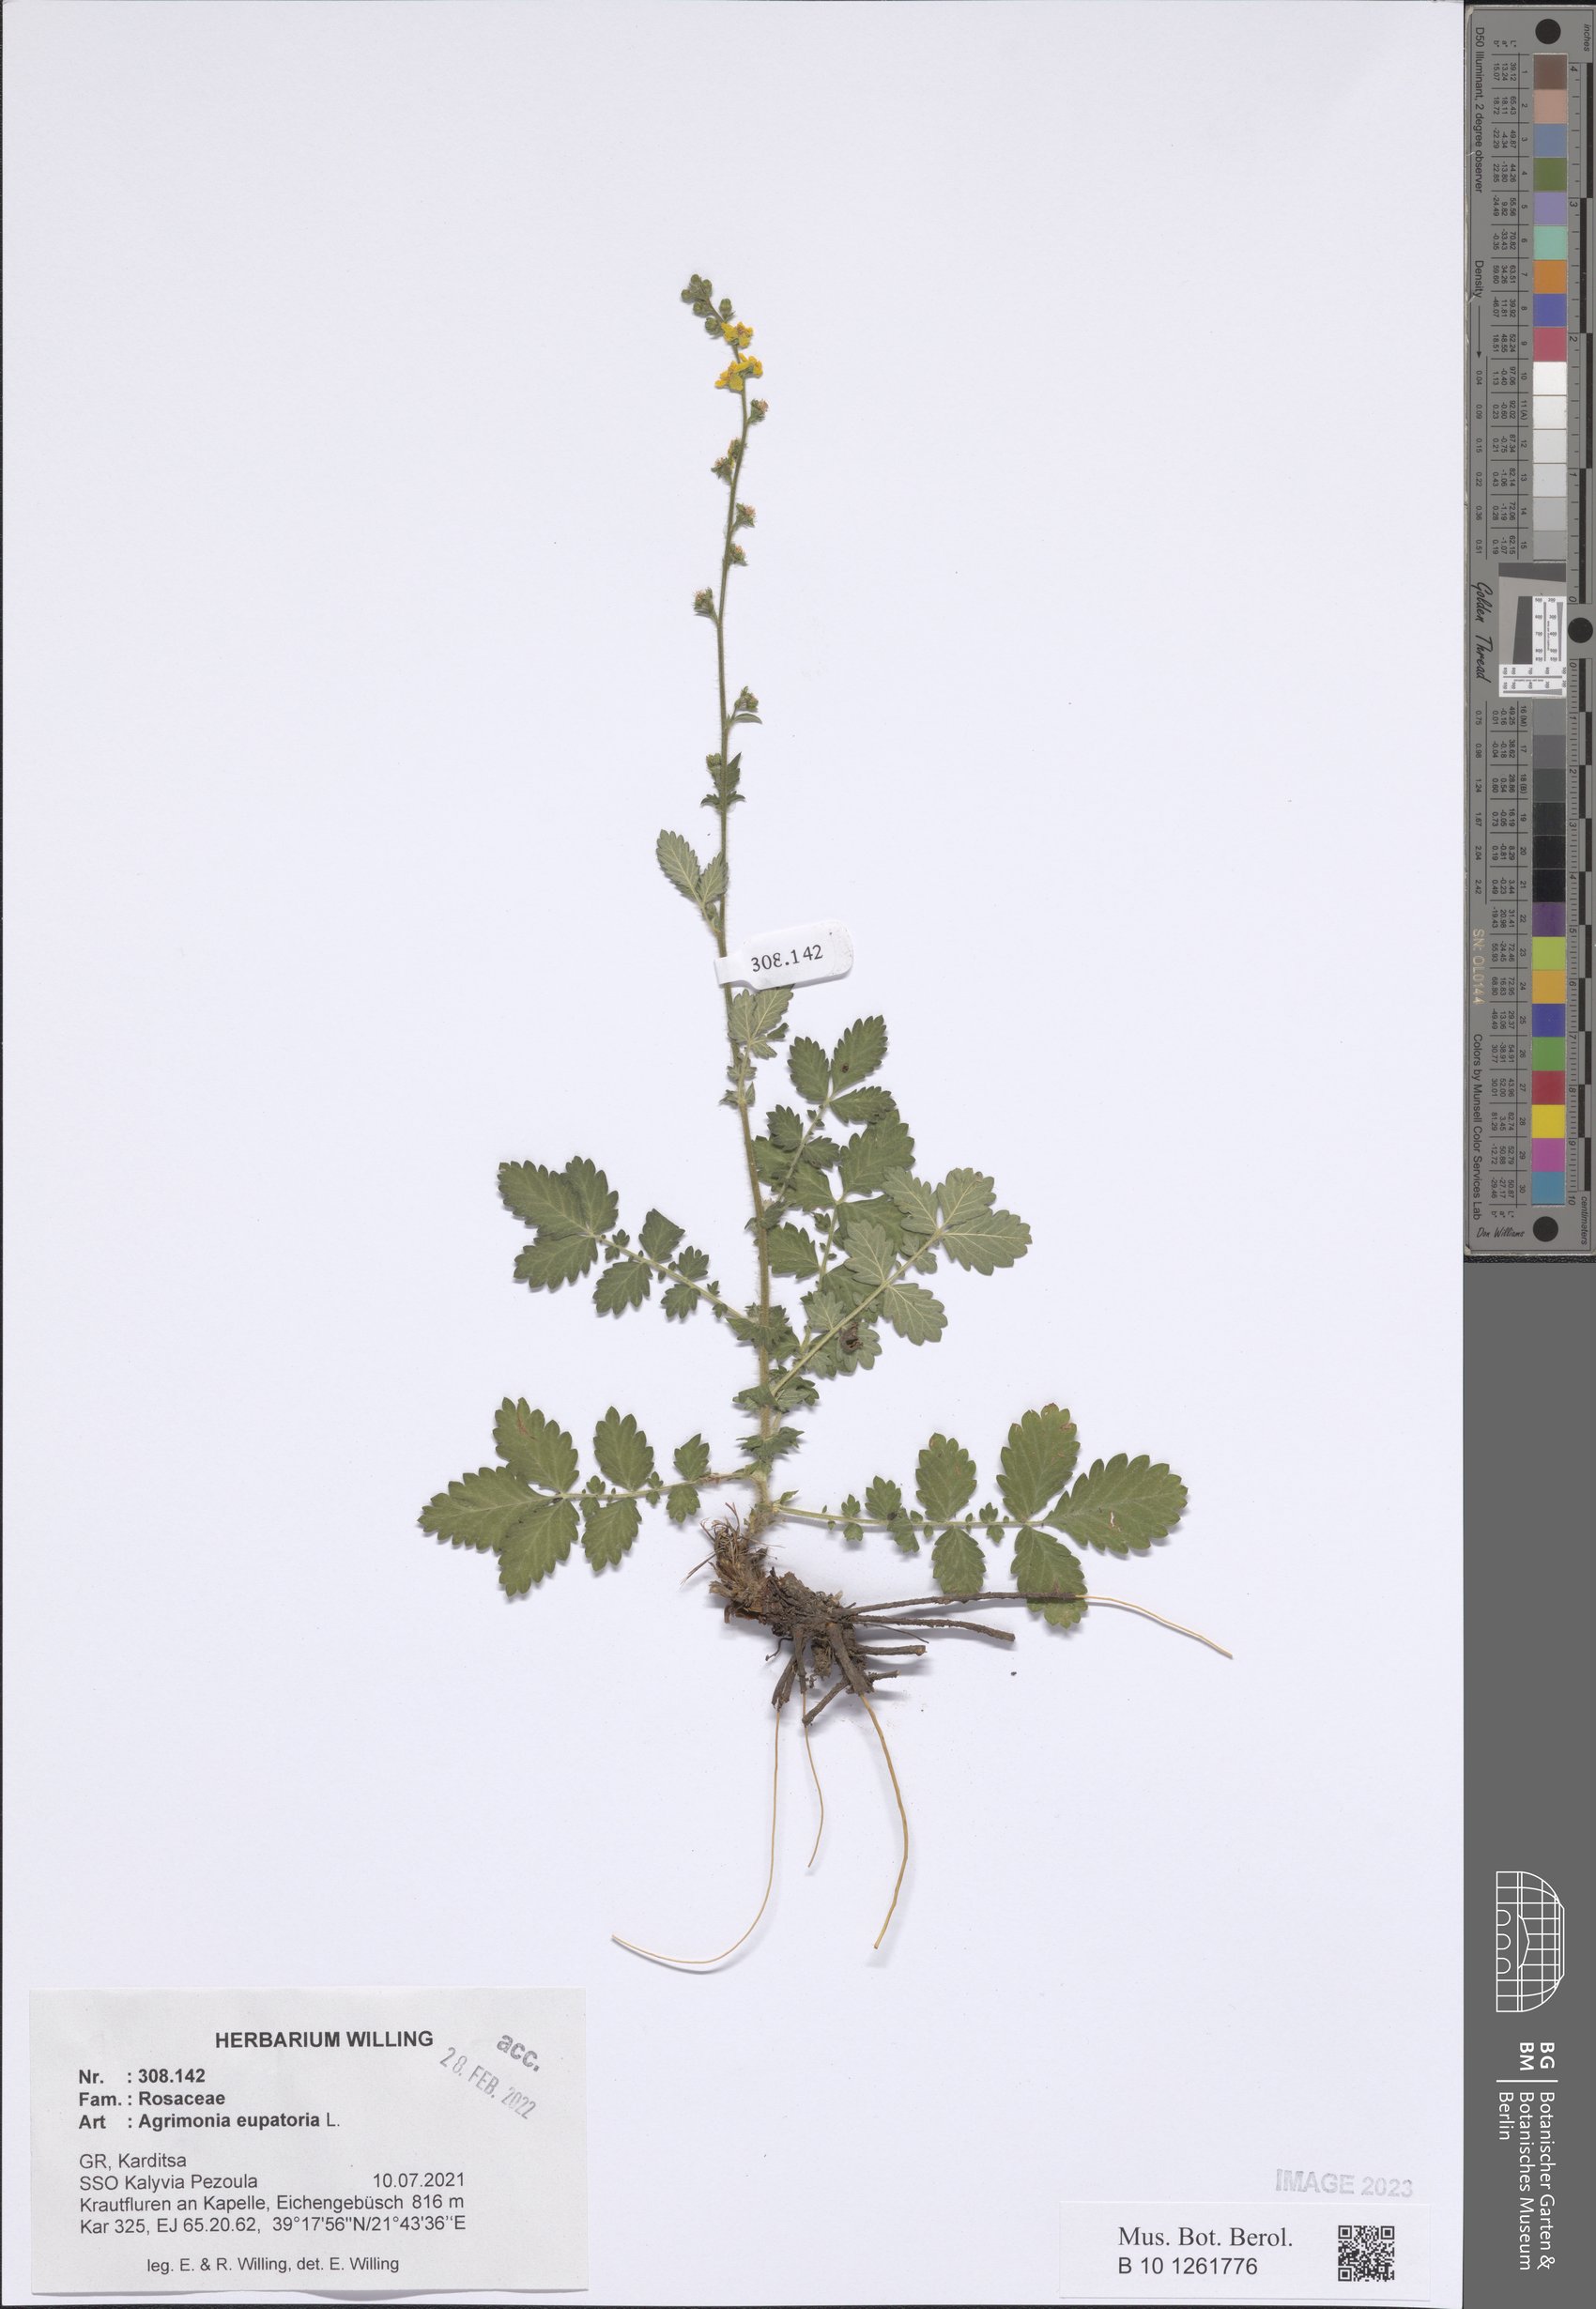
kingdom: Plantae
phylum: Tracheophyta
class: Magnoliopsida
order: Rosales
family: Rosaceae
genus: Agrimonia
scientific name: Agrimonia eupatoria
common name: Agrimony
